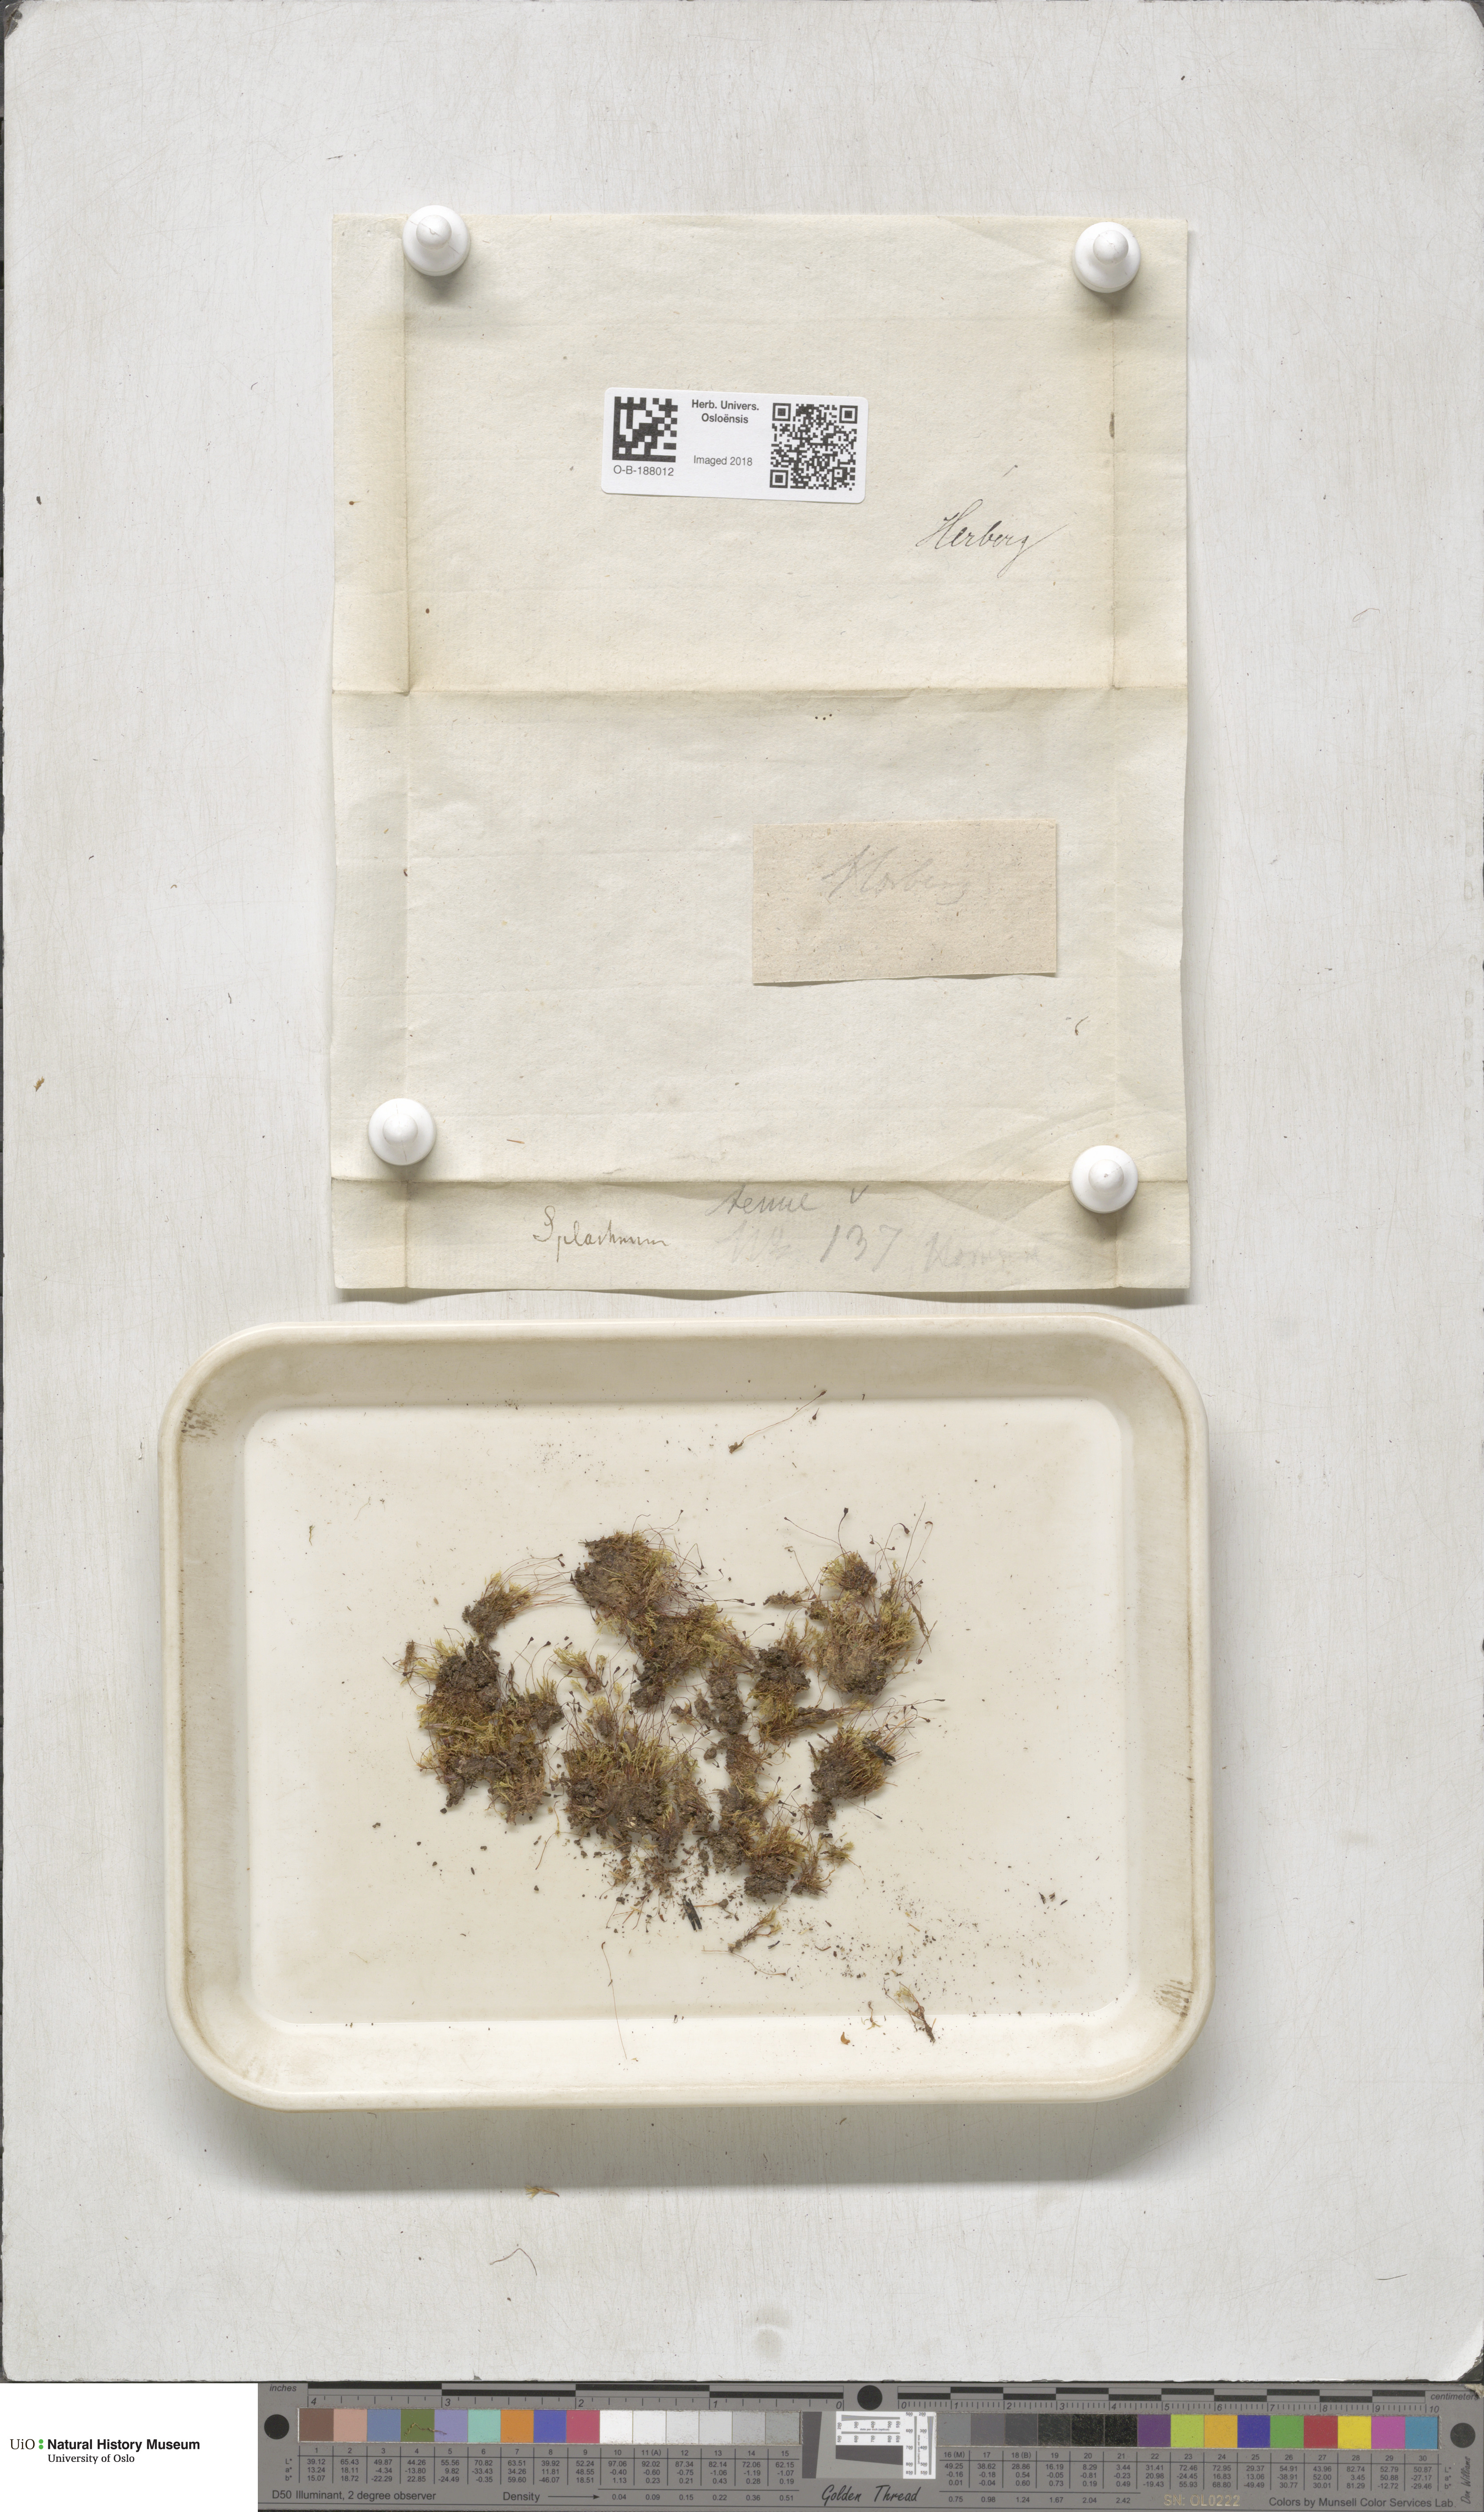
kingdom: Plantae
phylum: Bryophyta
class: Bryopsida
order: Splachnales
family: Splachnaceae
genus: Tayloria
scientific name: Tayloria tenuis
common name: Slender gland-moss
